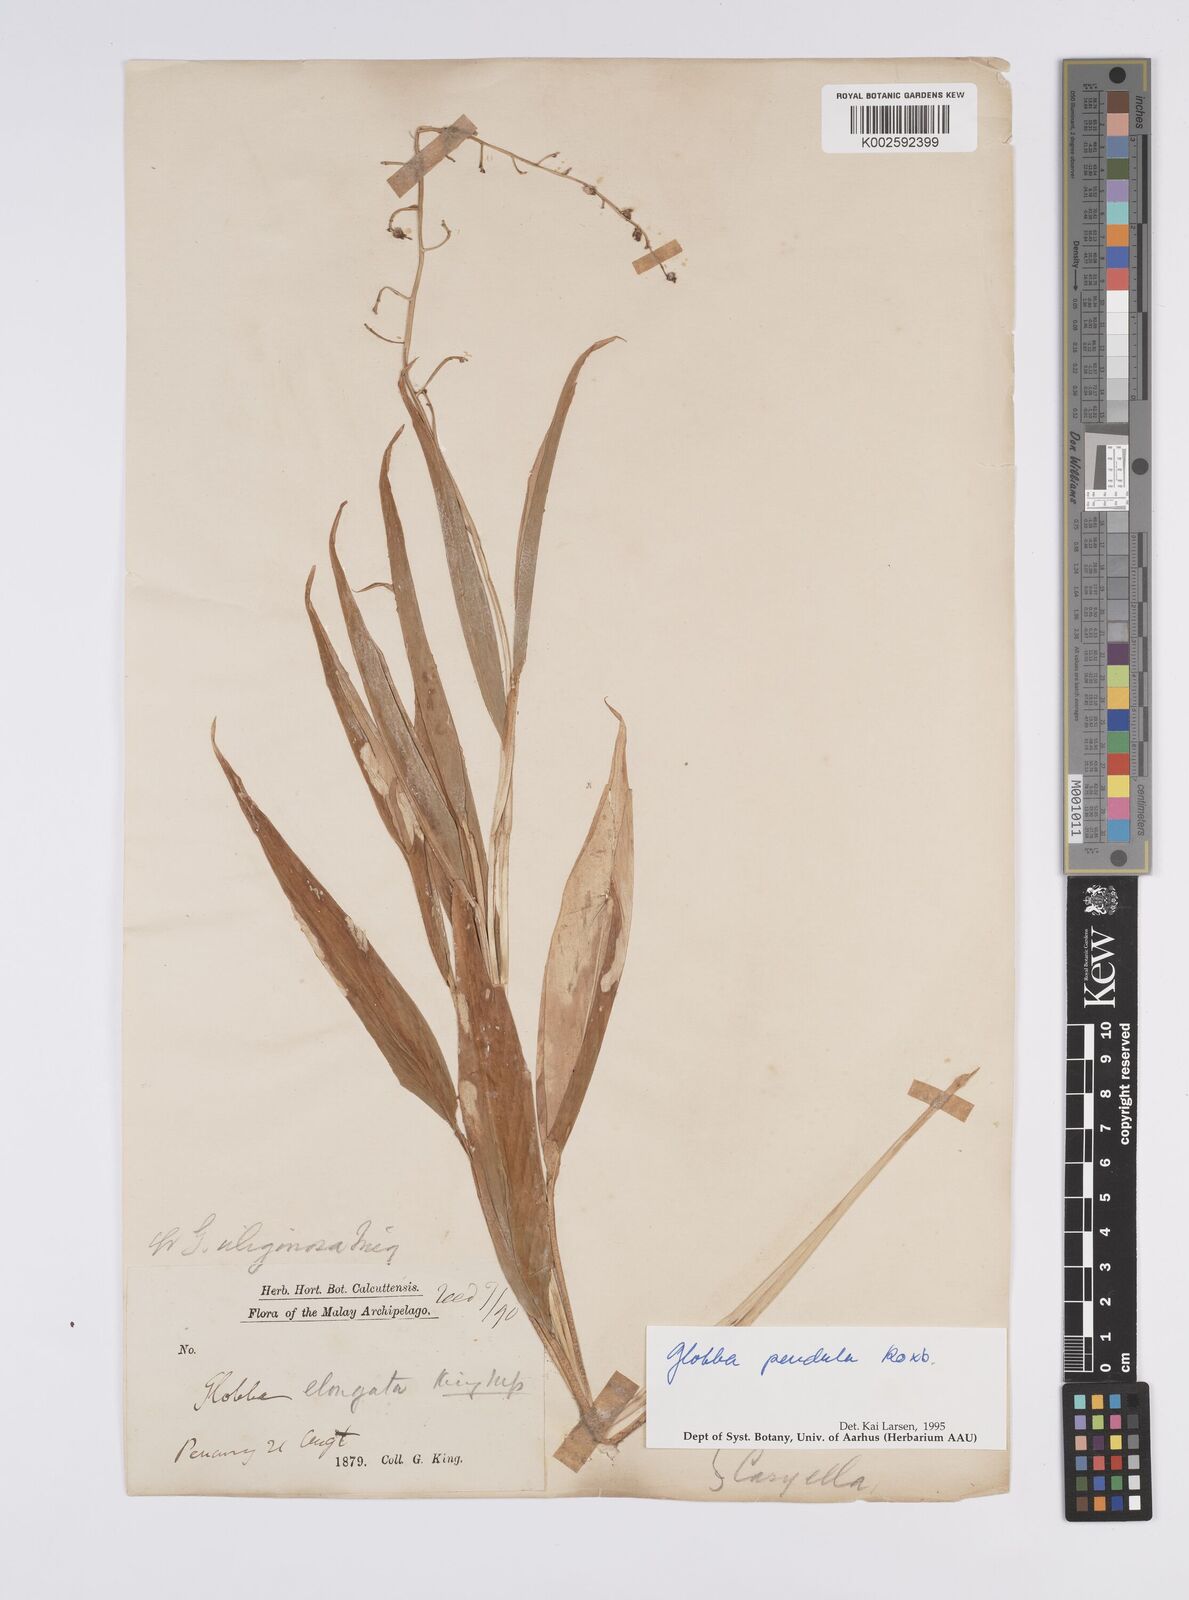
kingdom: Plantae
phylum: Tracheophyta
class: Liliopsida
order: Zingiberales
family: Zingiberaceae
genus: Globba
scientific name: Globba pendula
